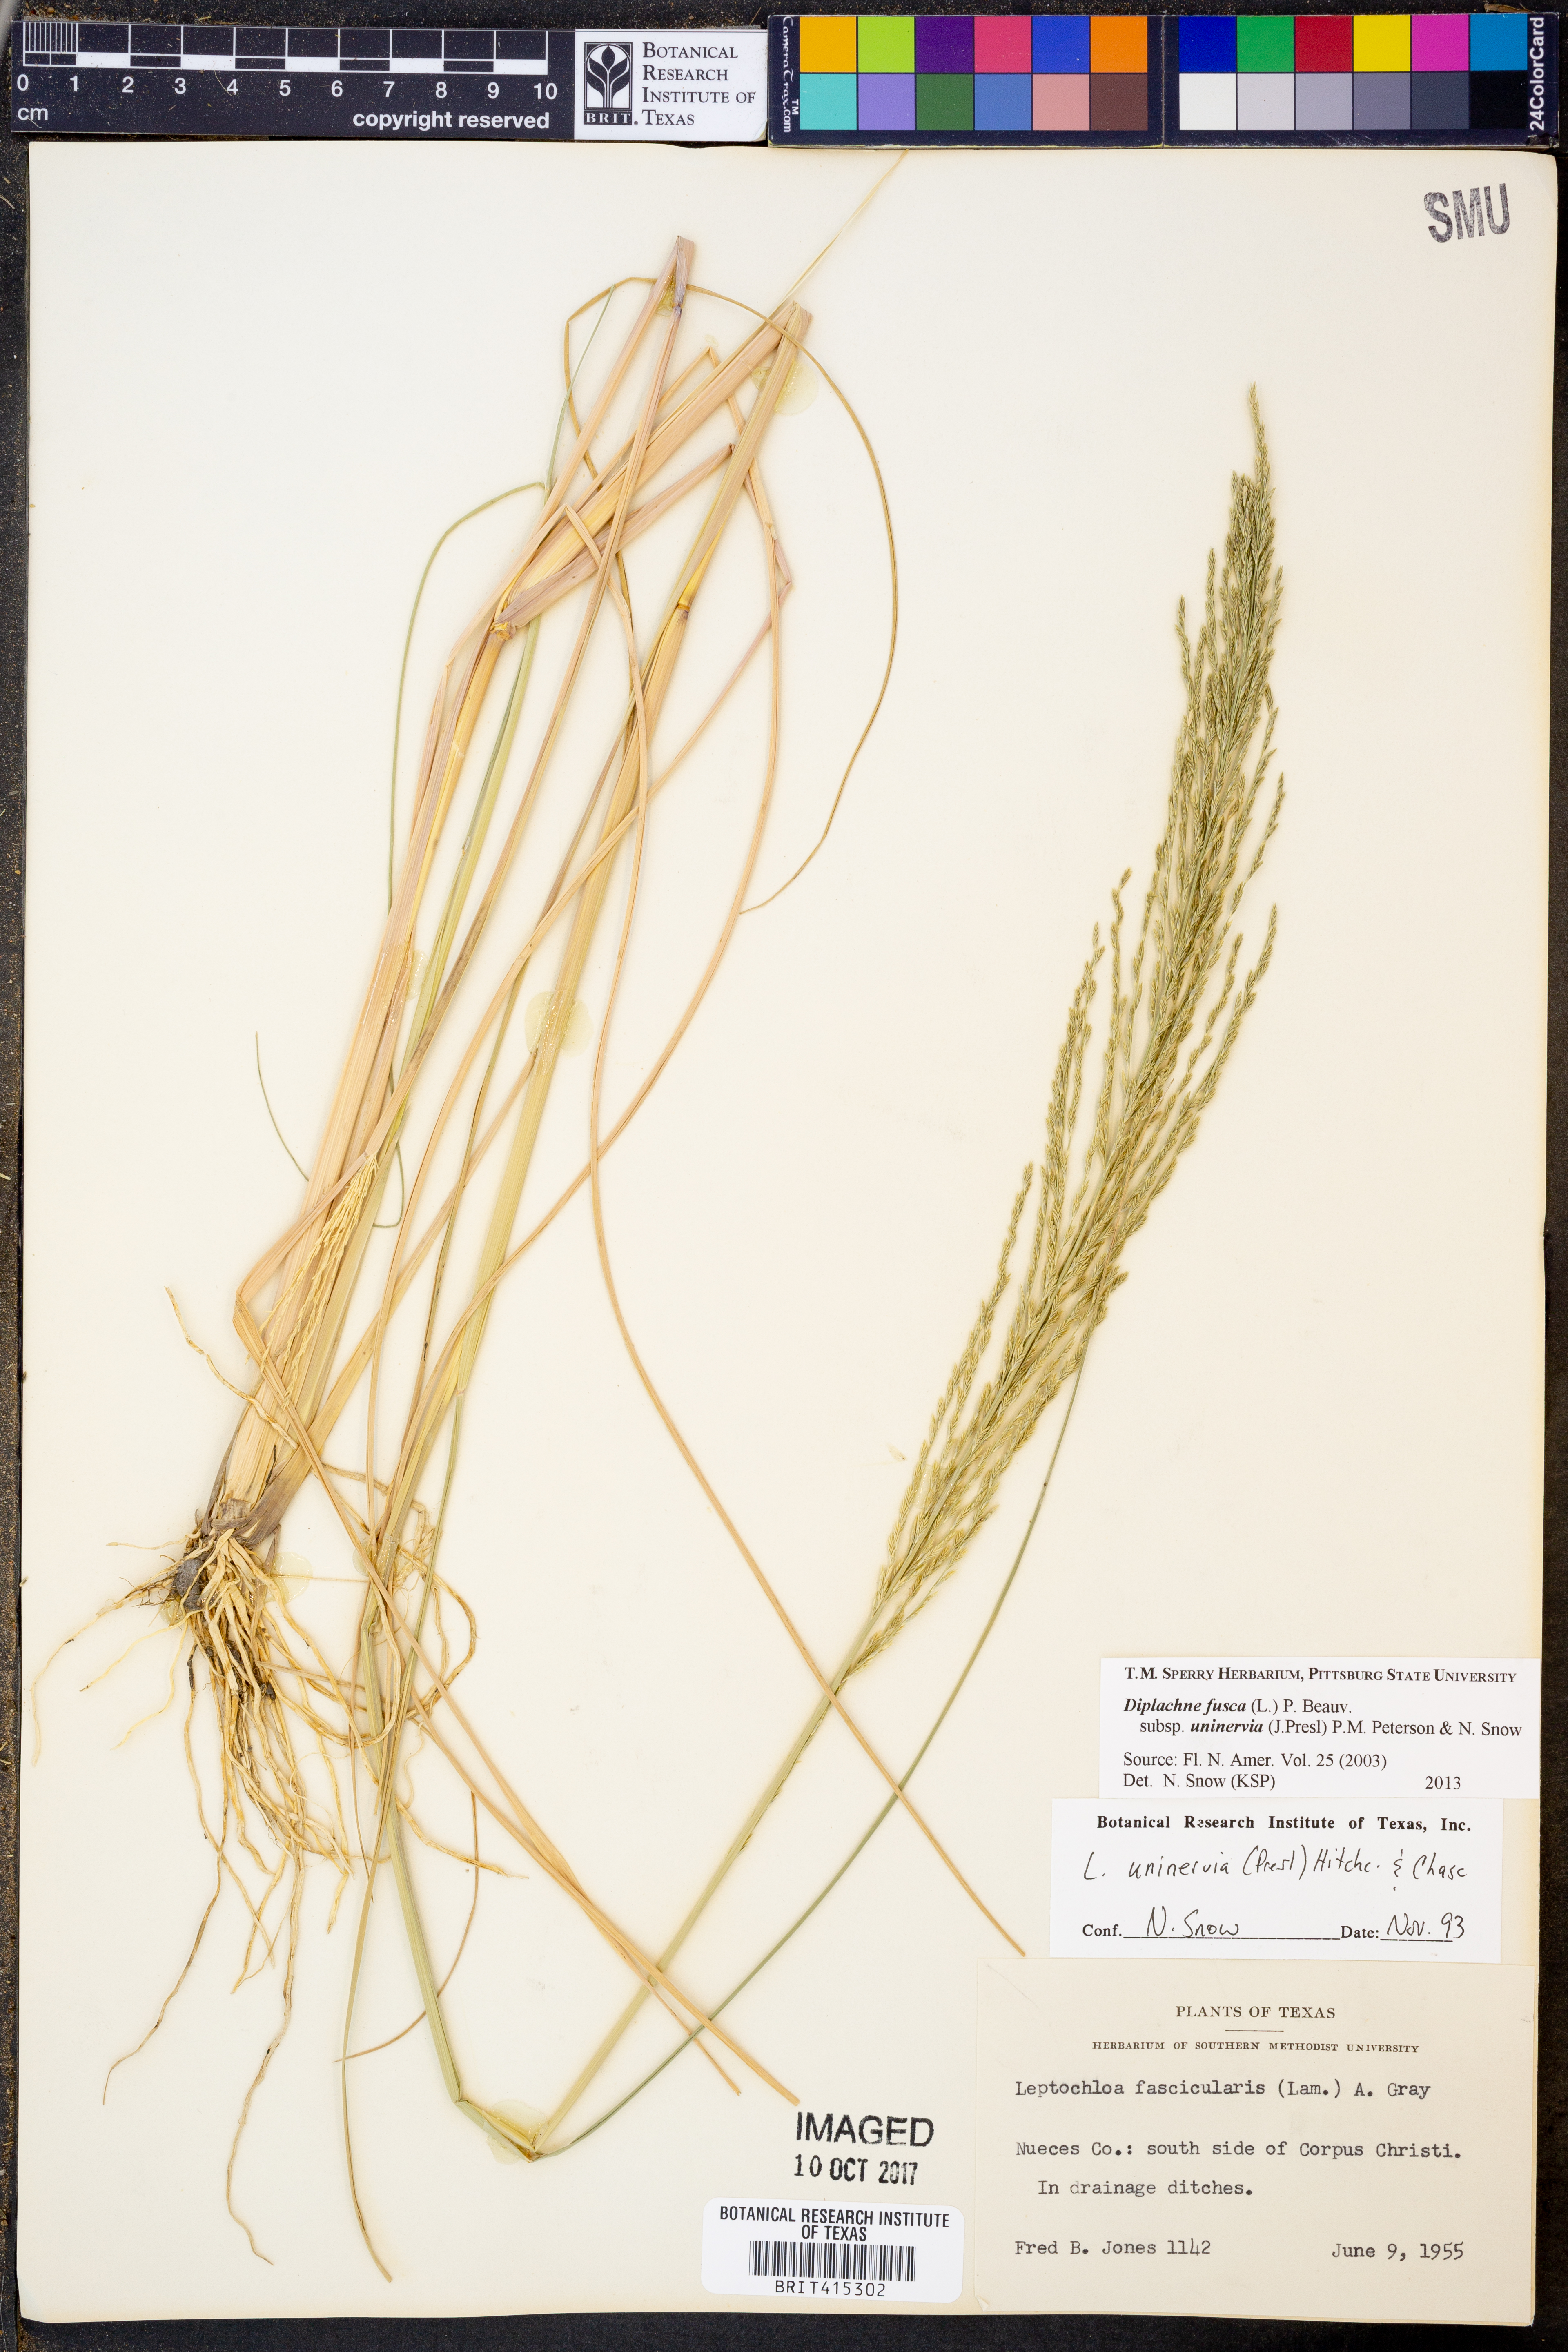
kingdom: Plantae
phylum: Tracheophyta
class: Liliopsida
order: Poales
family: Poaceae
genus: Diplachne
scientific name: Diplachne fusca
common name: Brown beetle grass
